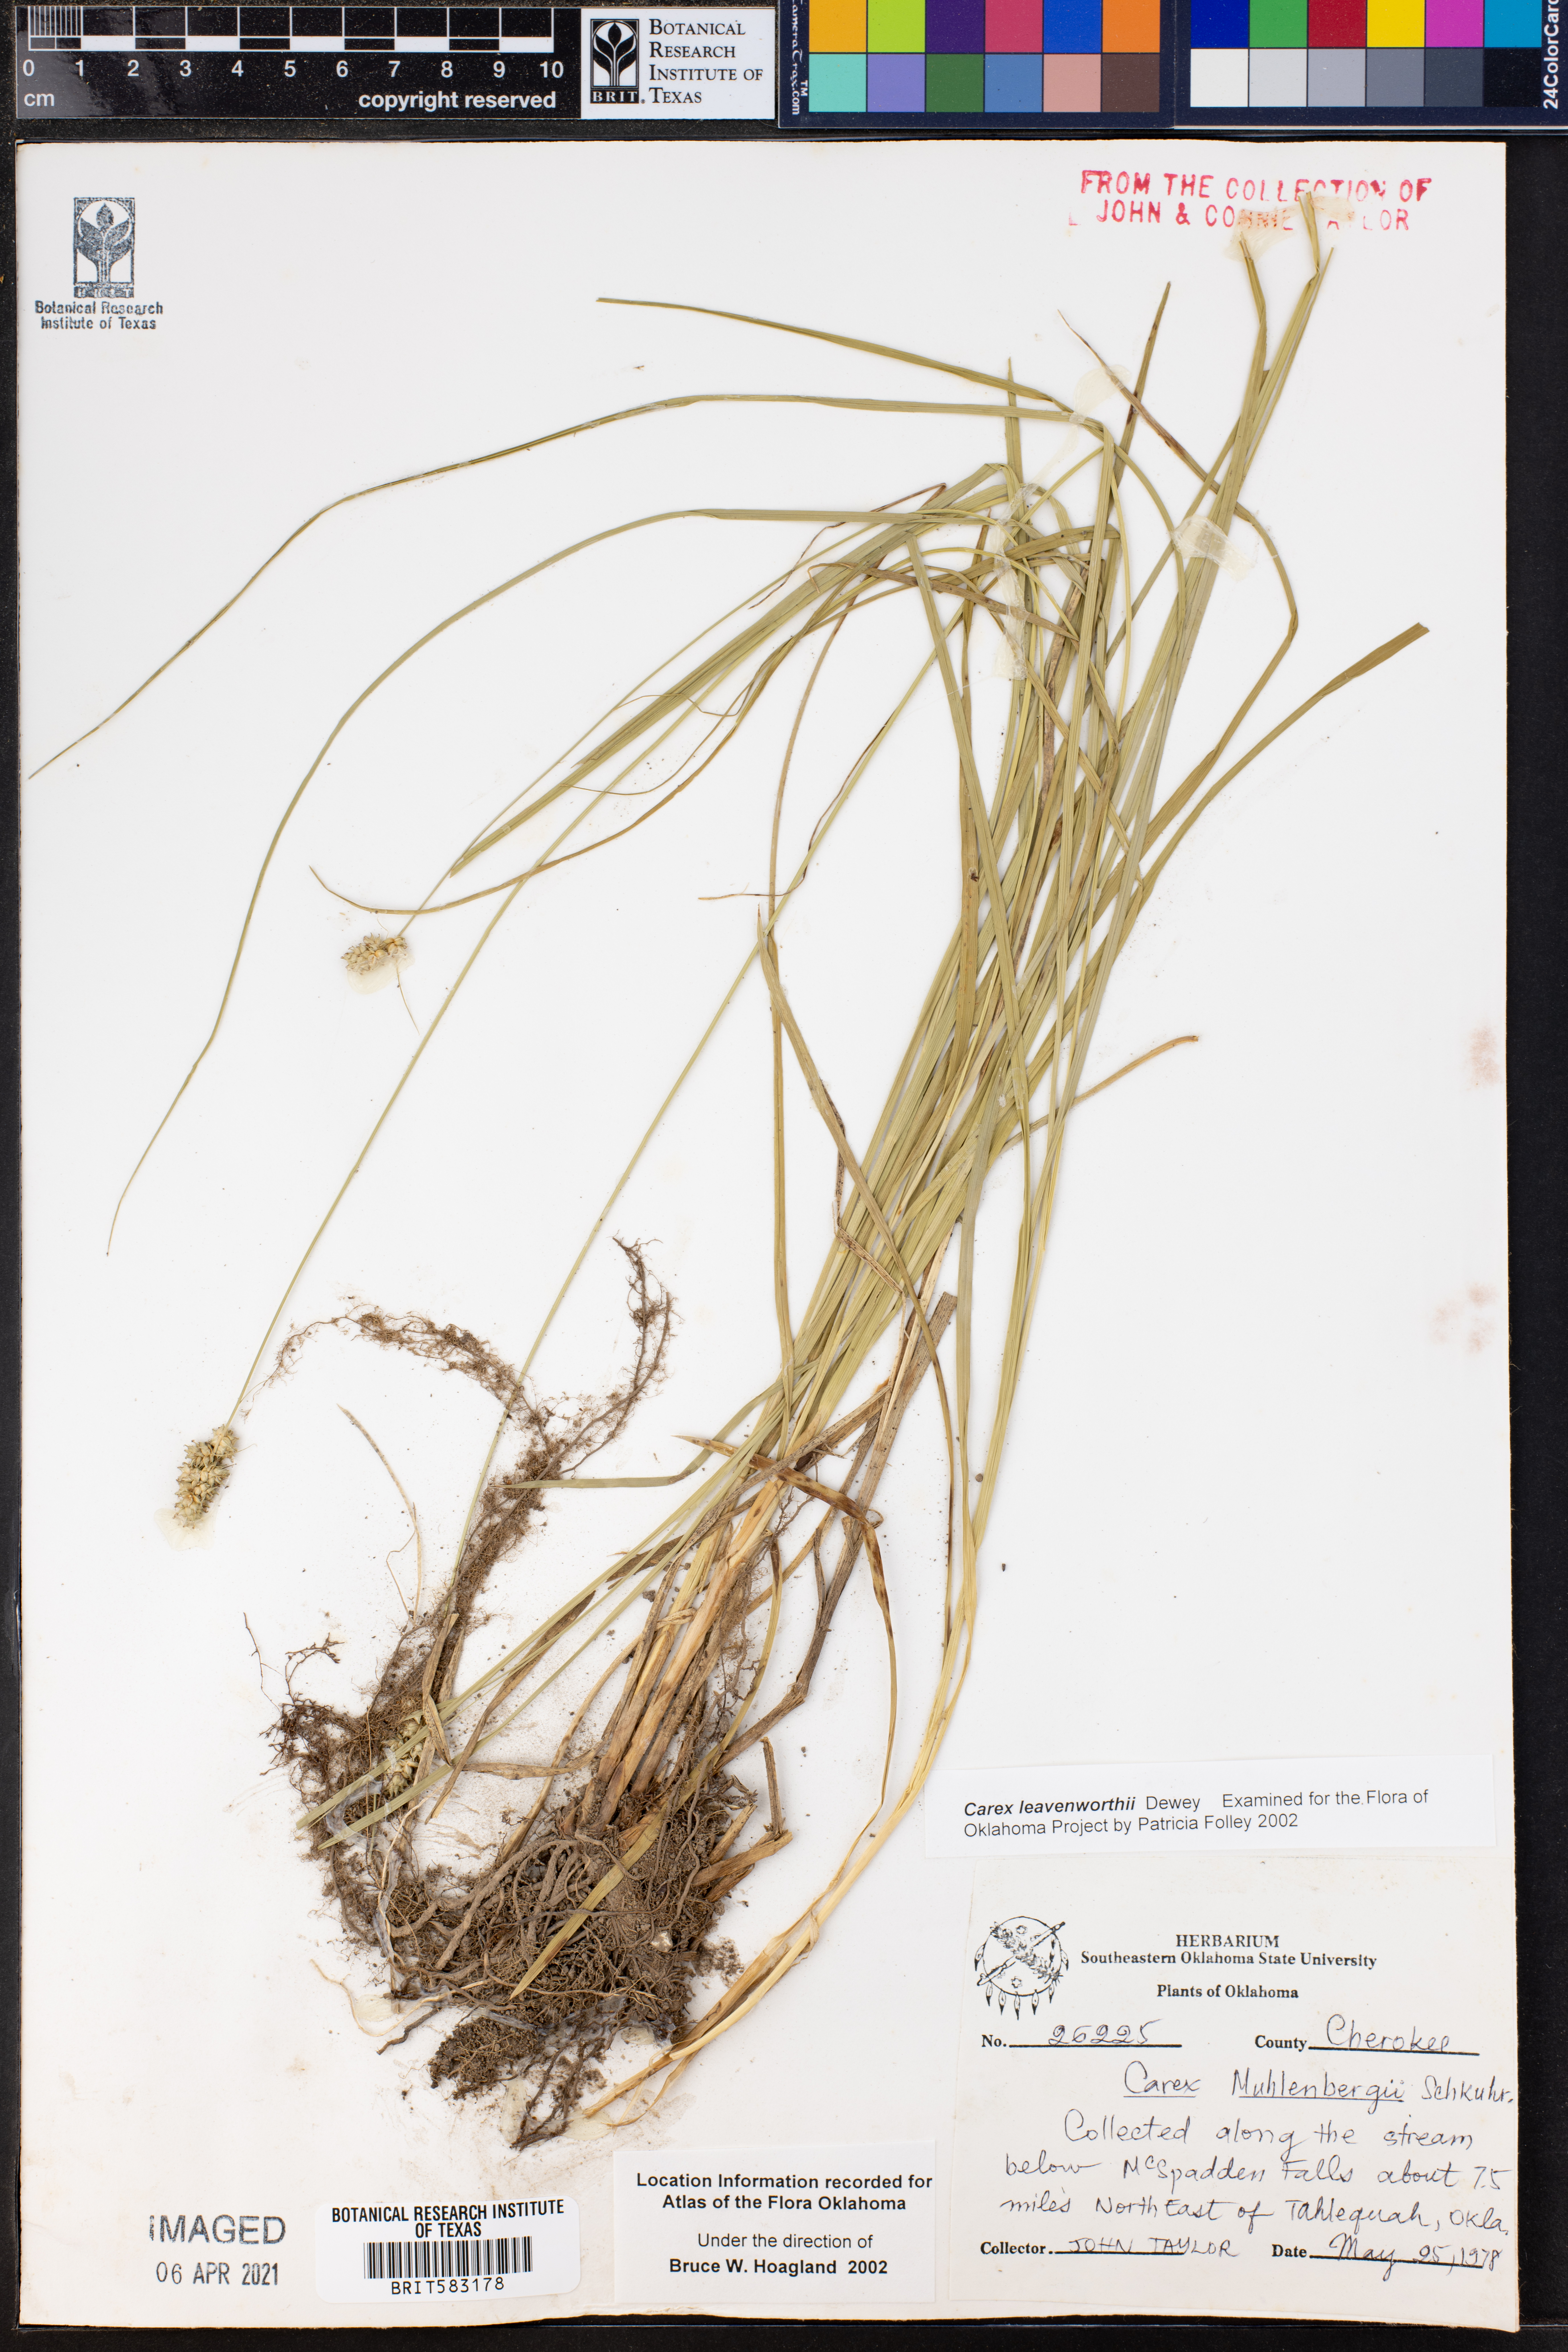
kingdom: Plantae
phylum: Tracheophyta
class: Liliopsida
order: Poales
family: Cyperaceae
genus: Carex
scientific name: Carex leavenworthii
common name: Leavenworth's bracted sedge
